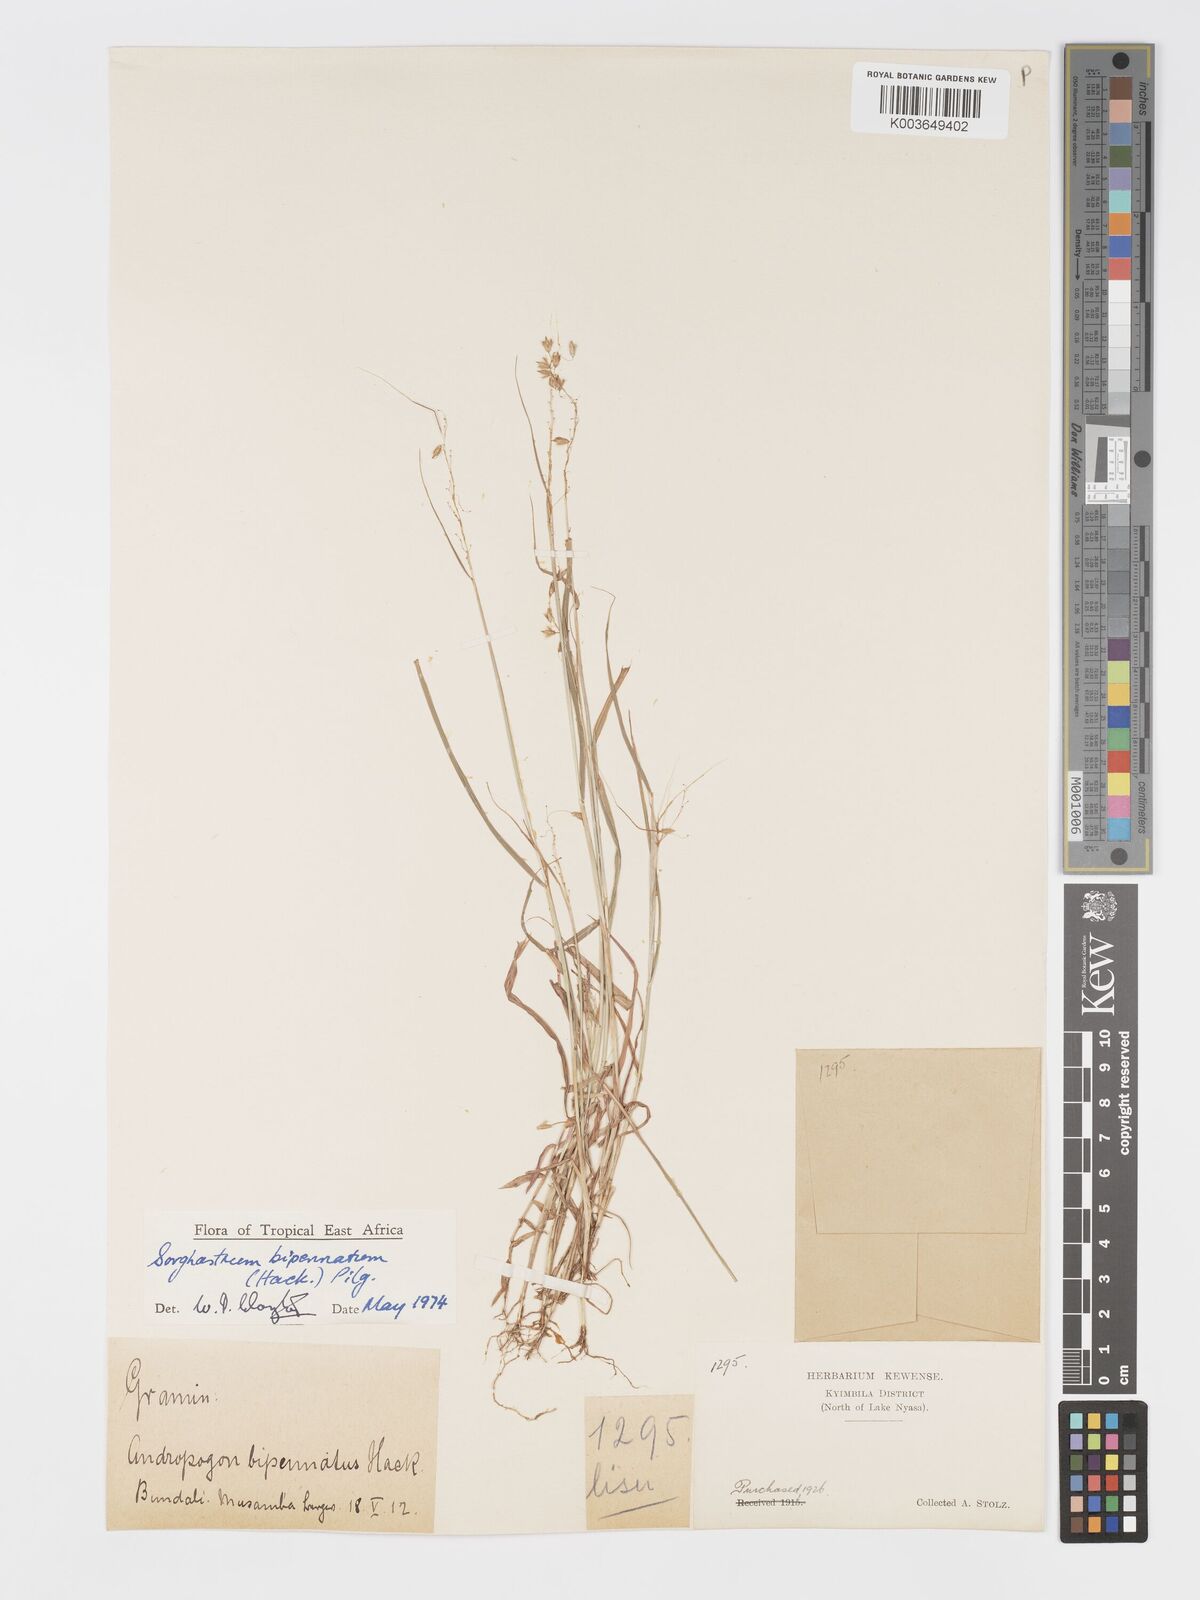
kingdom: Plantae
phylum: Tracheophyta
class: Liliopsida
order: Poales
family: Poaceae
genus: Sorghastrum
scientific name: Sorghastrum incompletum
